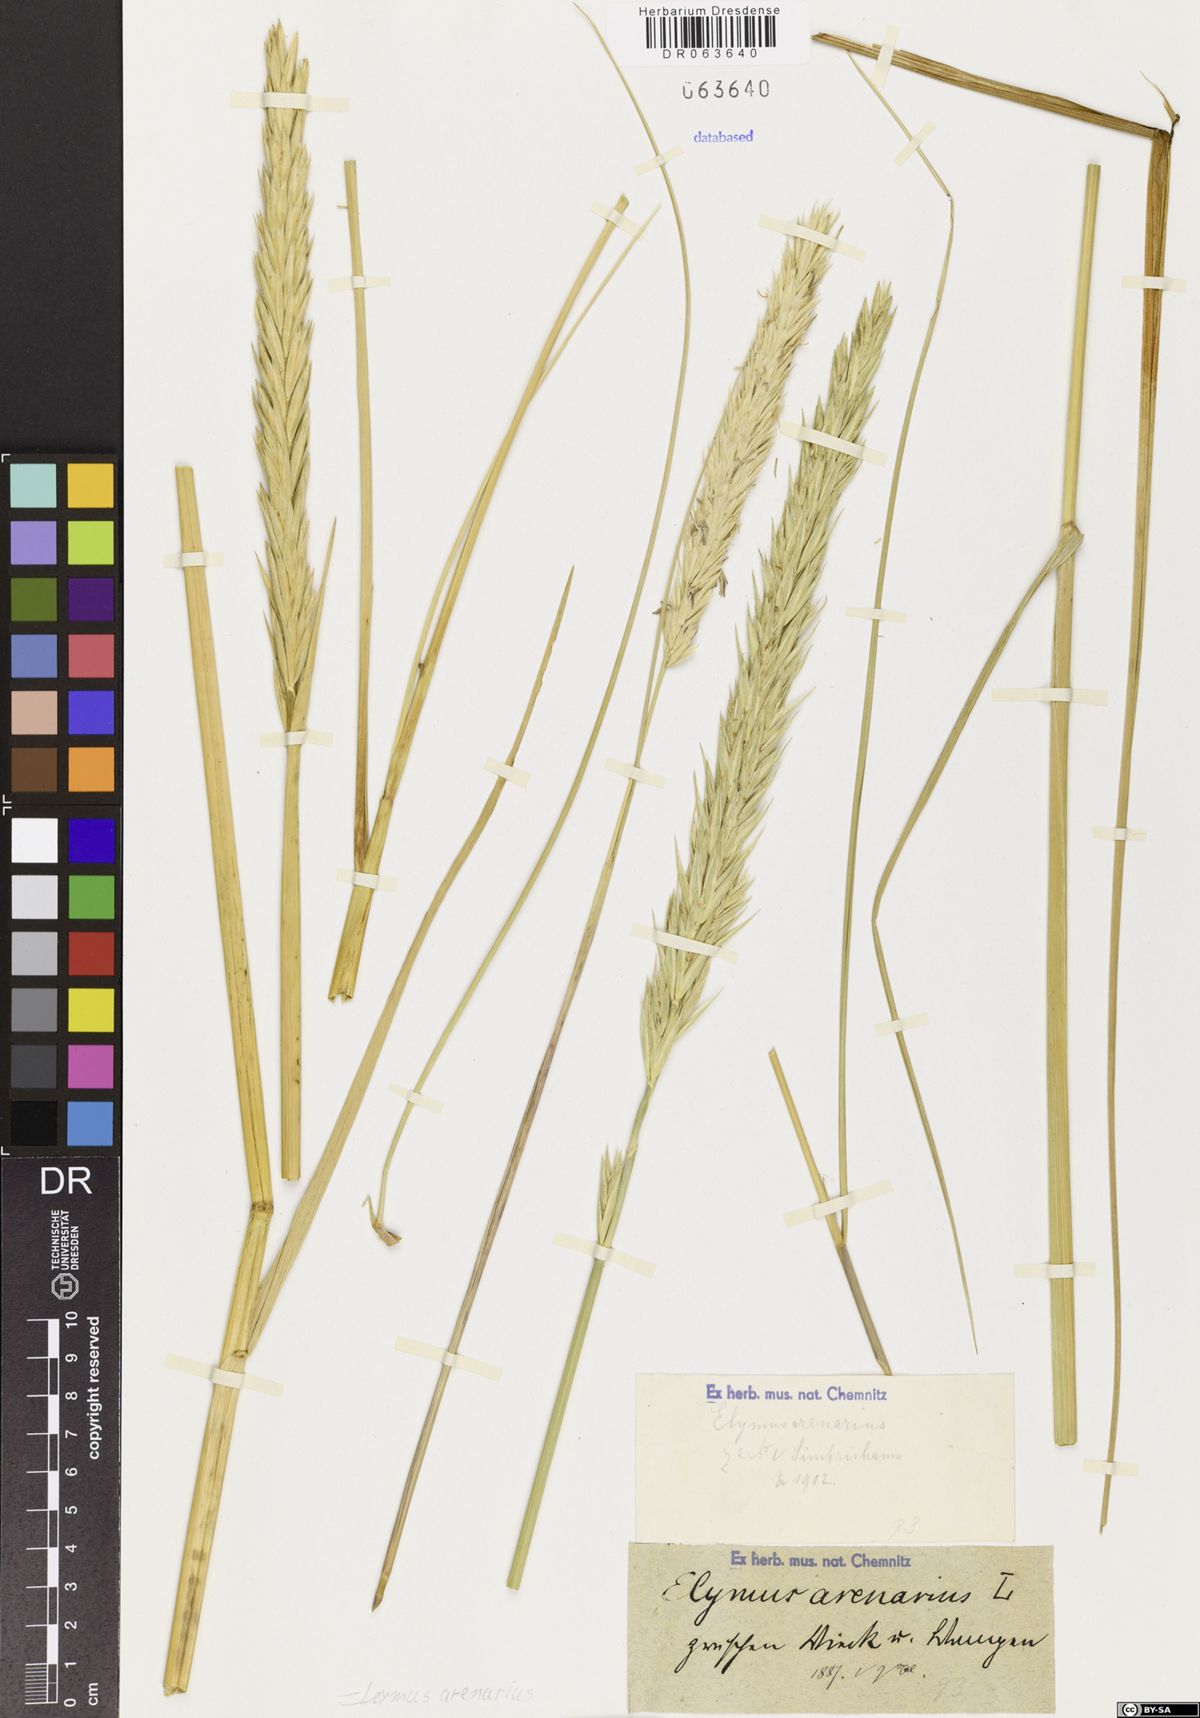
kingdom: Plantae
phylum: Tracheophyta
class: Liliopsida
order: Poales
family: Poaceae
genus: Leymus
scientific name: Leymus arenarius
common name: Lyme-grass
